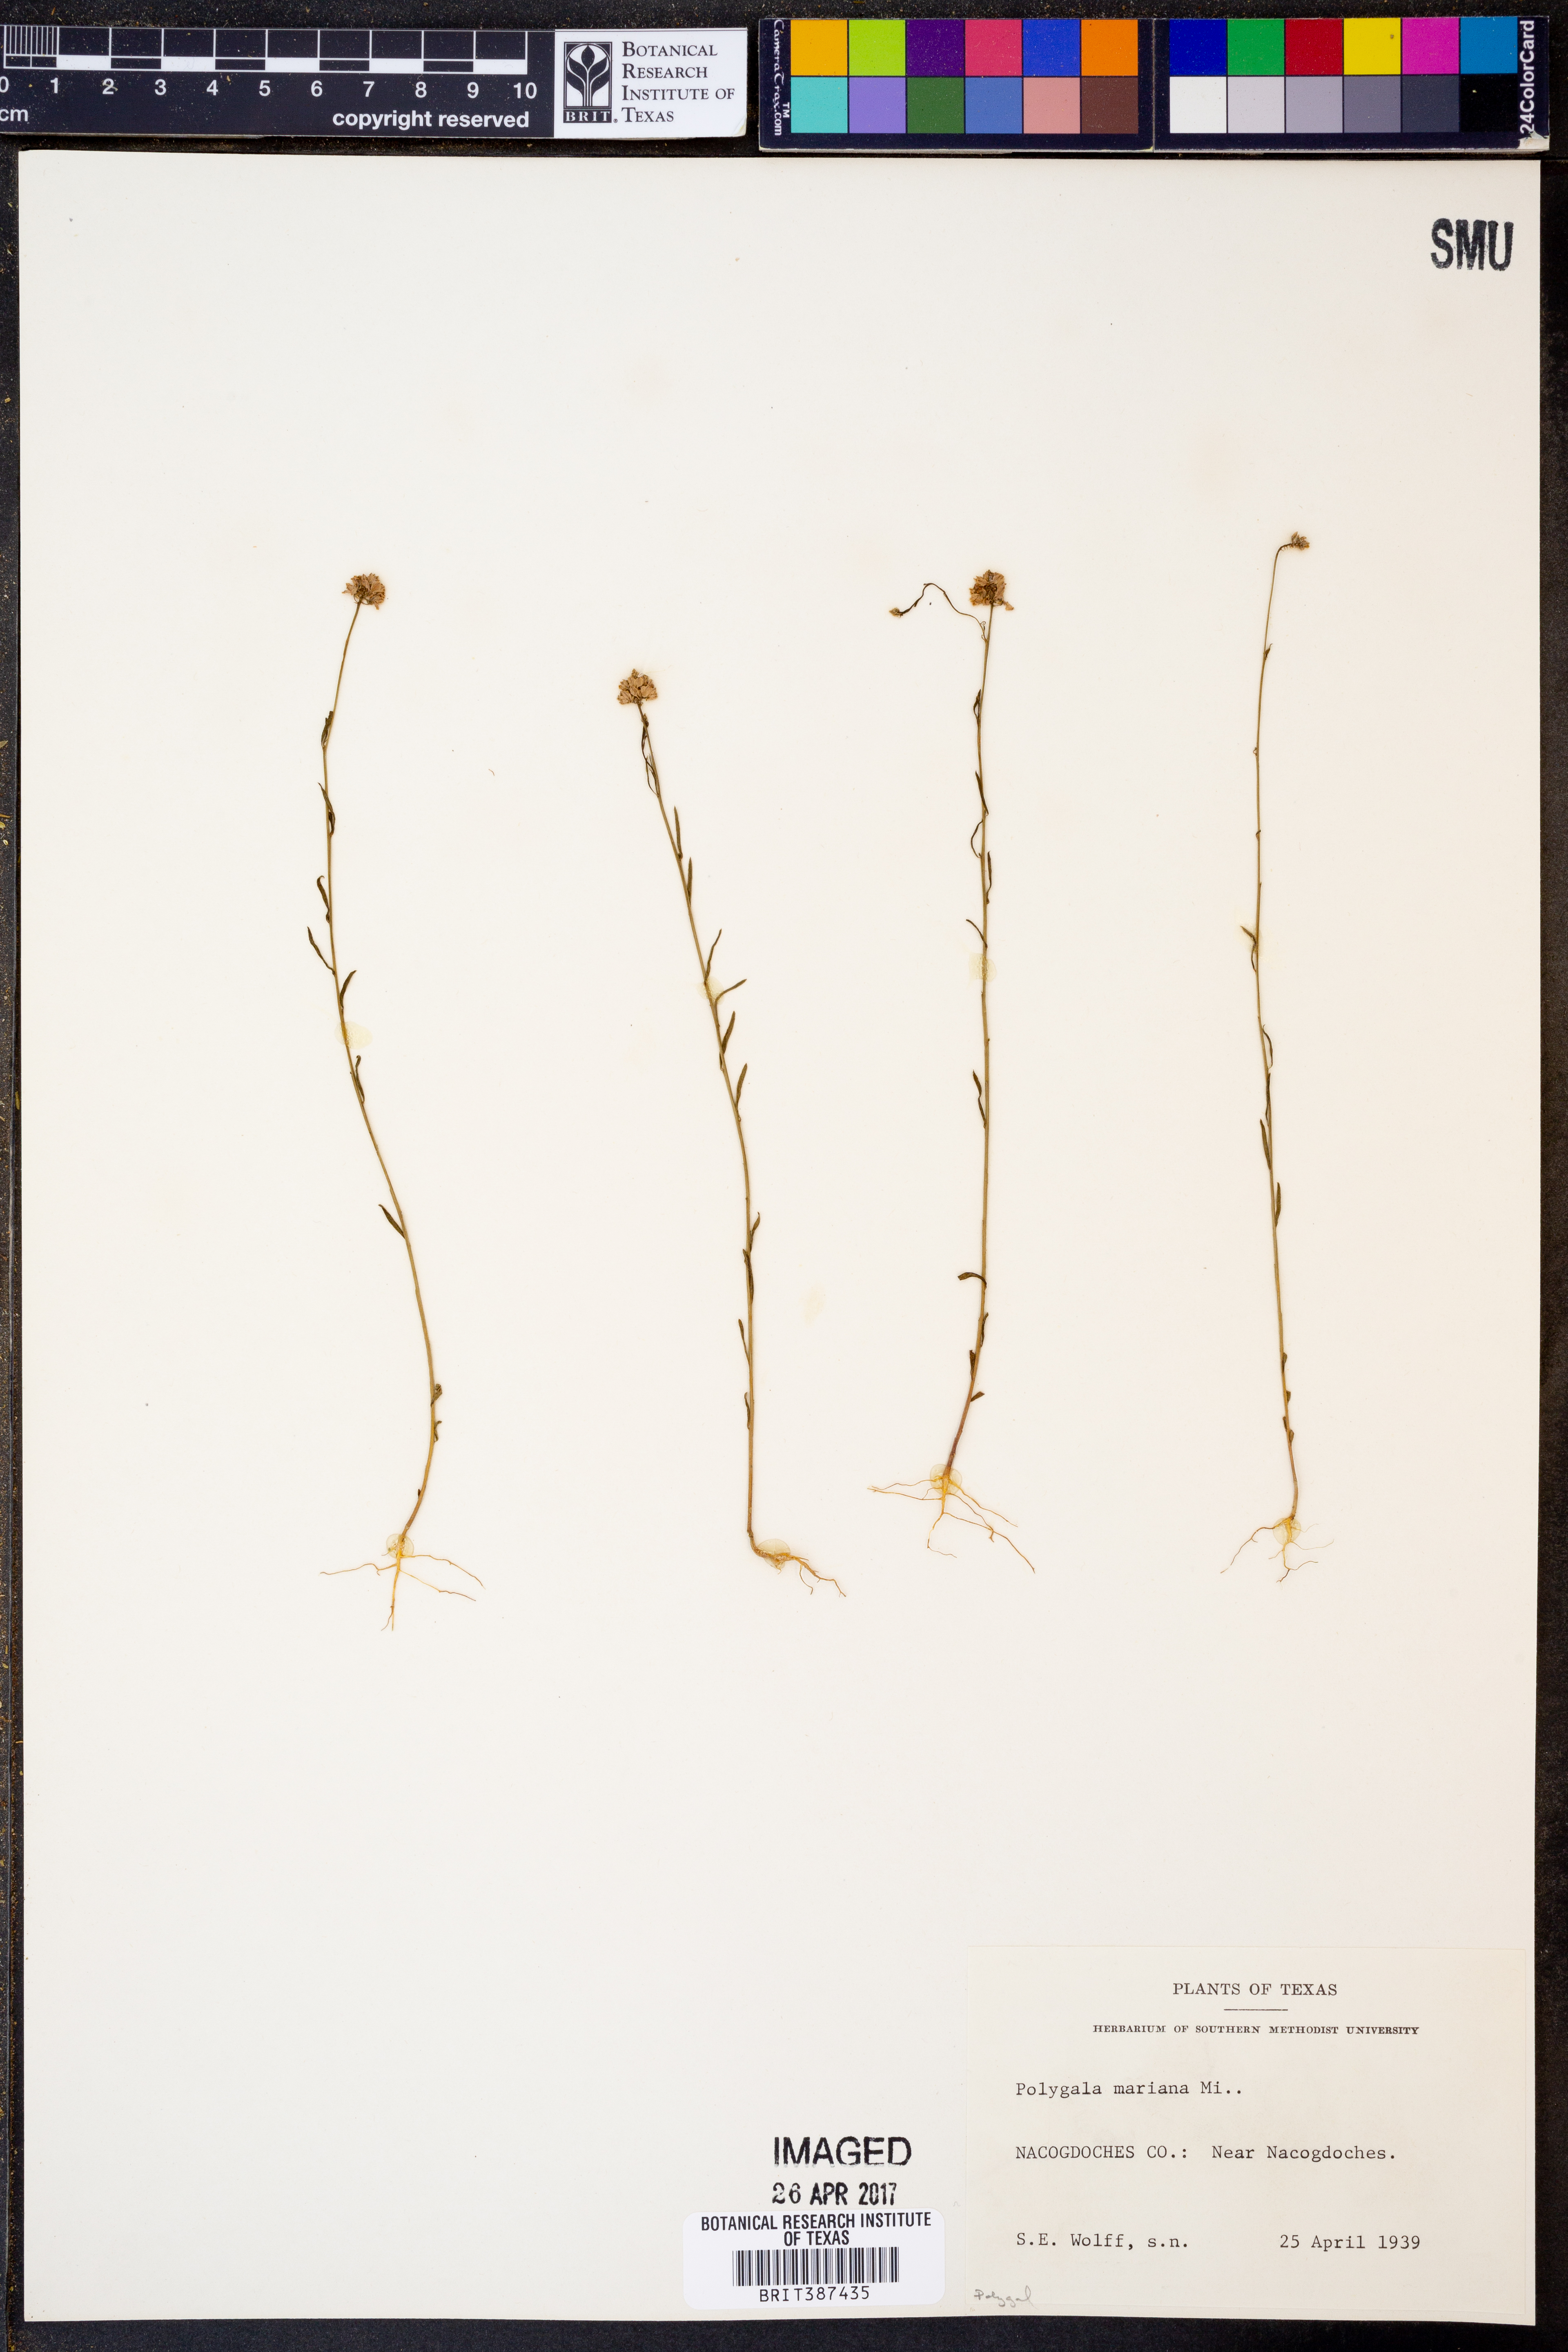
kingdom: Plantae
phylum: Tracheophyta
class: Magnoliopsida
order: Fabales
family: Polygalaceae
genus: Polygala
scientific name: Polygala mariana
